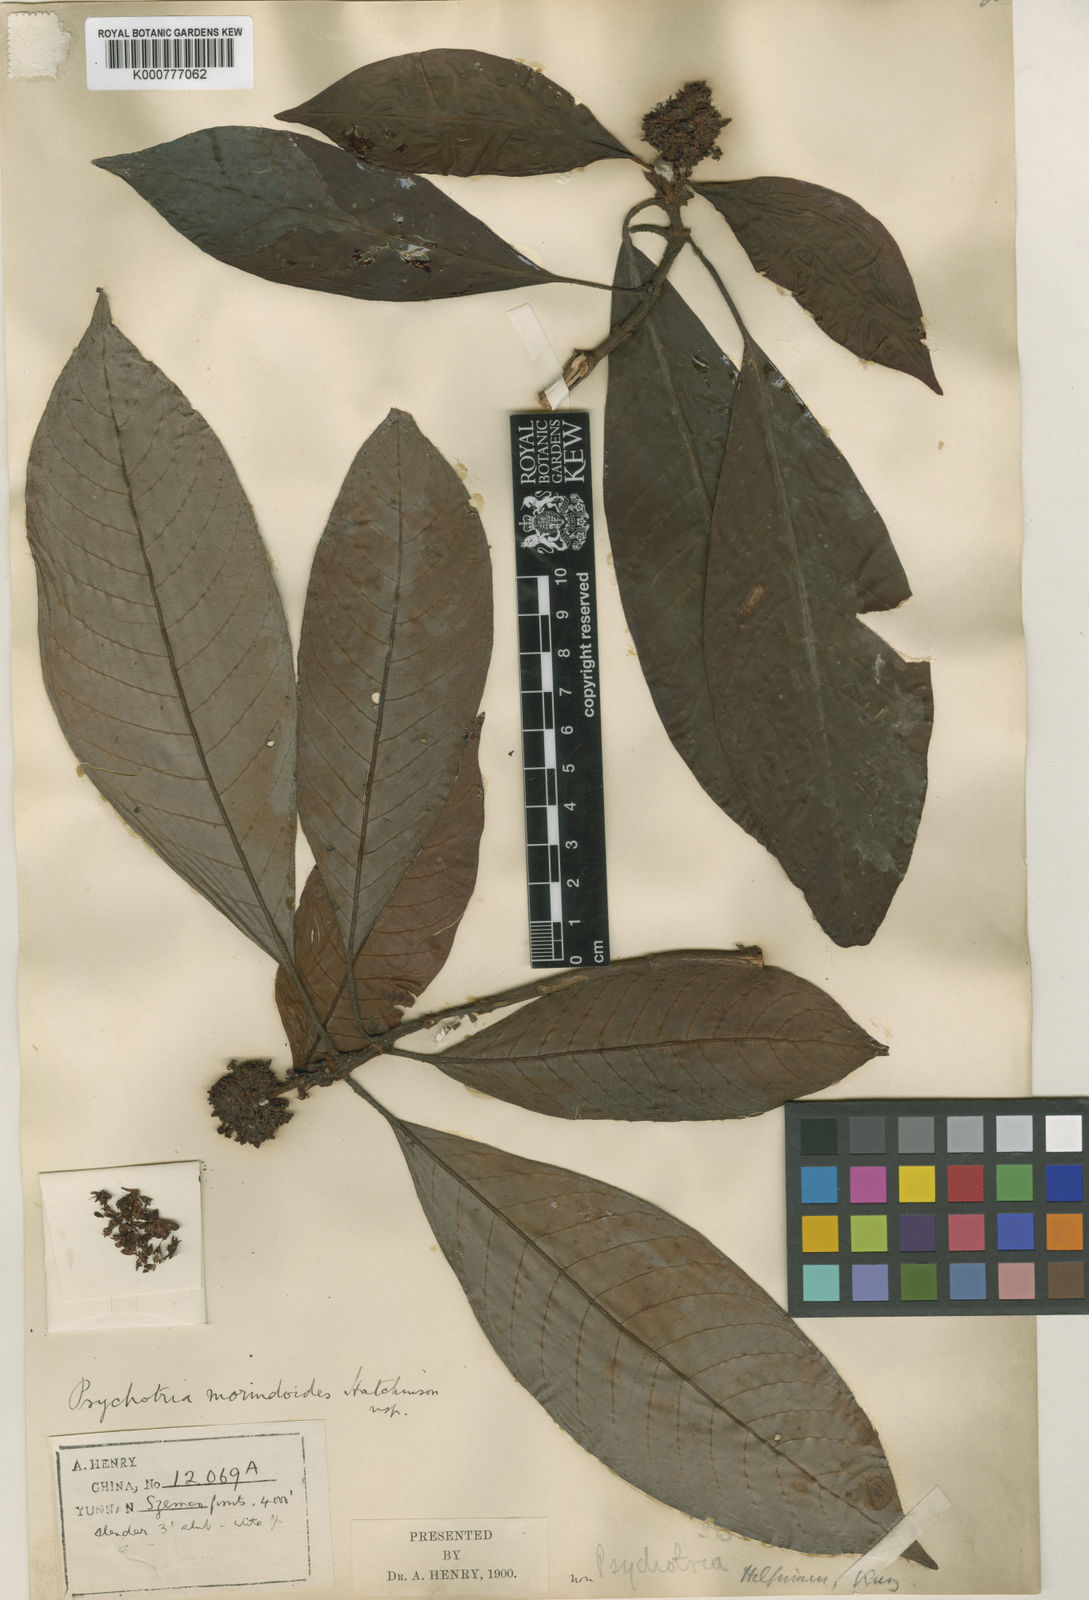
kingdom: Plantae
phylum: Tracheophyta
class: Magnoliopsida
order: Gentianales
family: Rubiaceae
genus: Psychotria
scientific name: Psychotria morindoides
